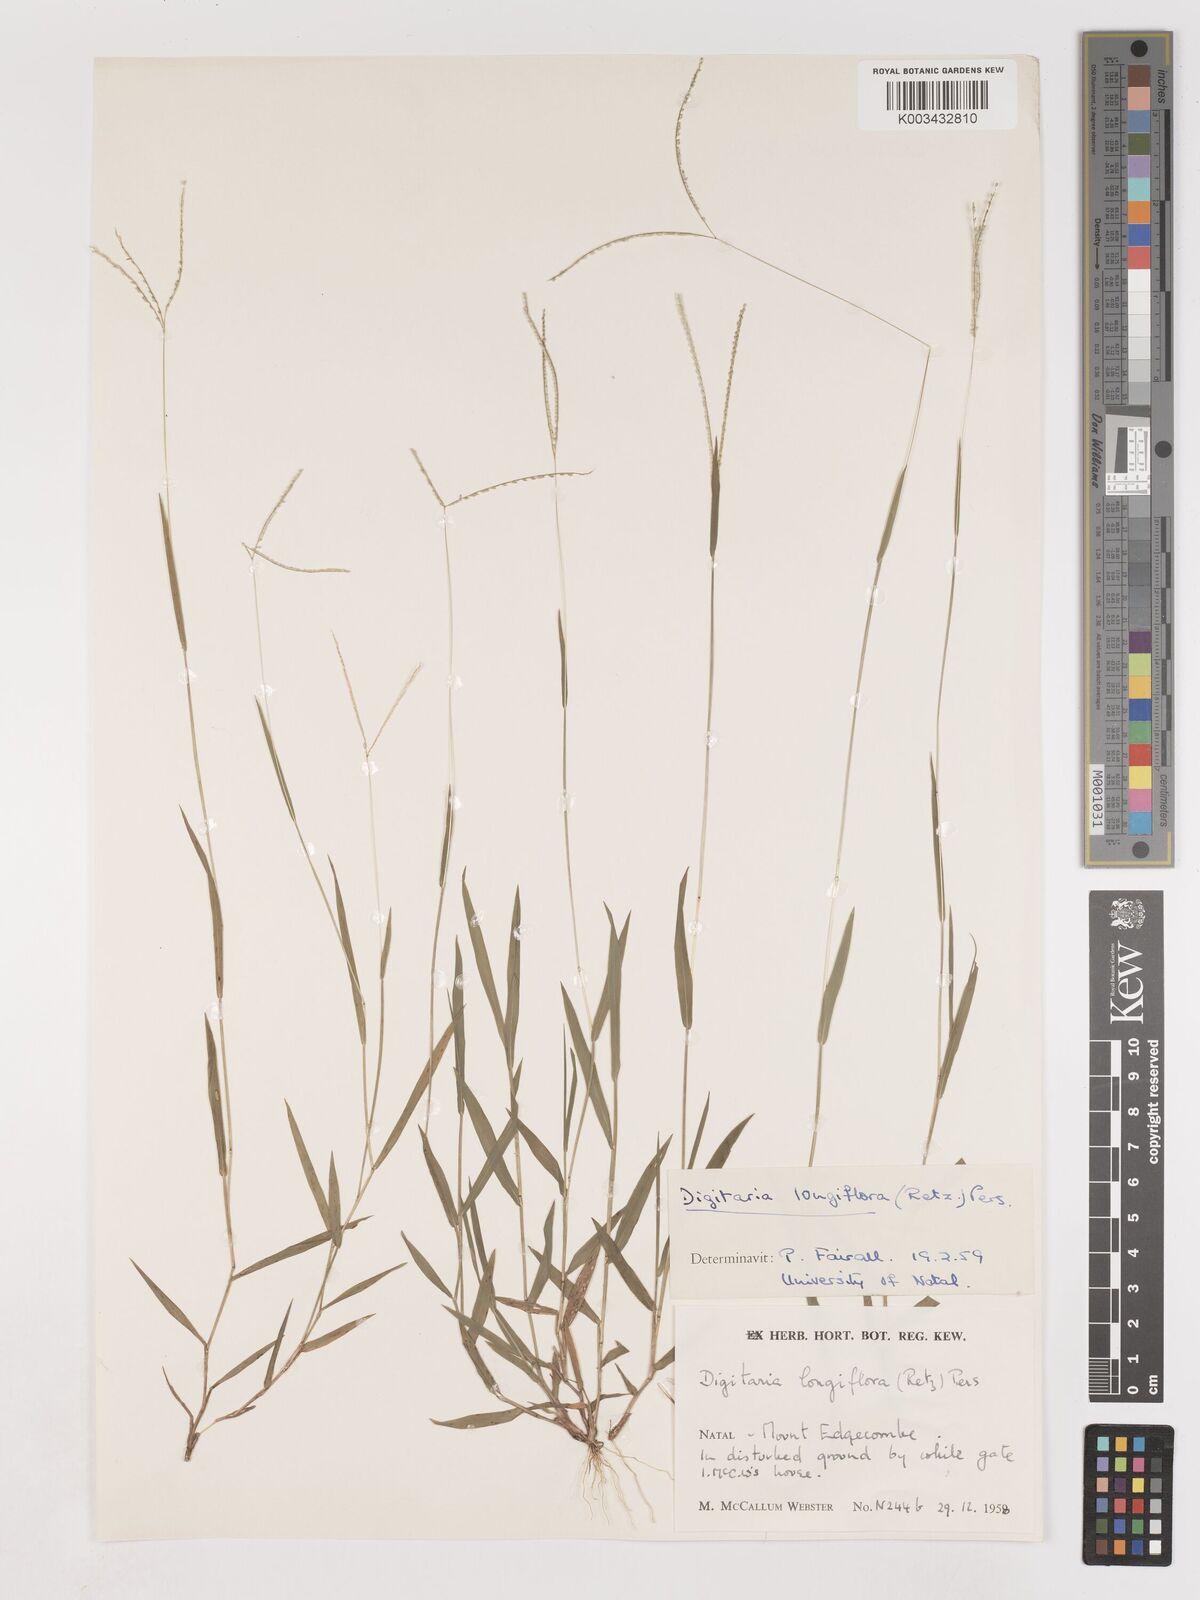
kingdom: Plantae
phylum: Tracheophyta
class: Liliopsida
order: Poales
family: Poaceae
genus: Digitaria
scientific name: Digitaria longiflora
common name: Wire crabgrass
